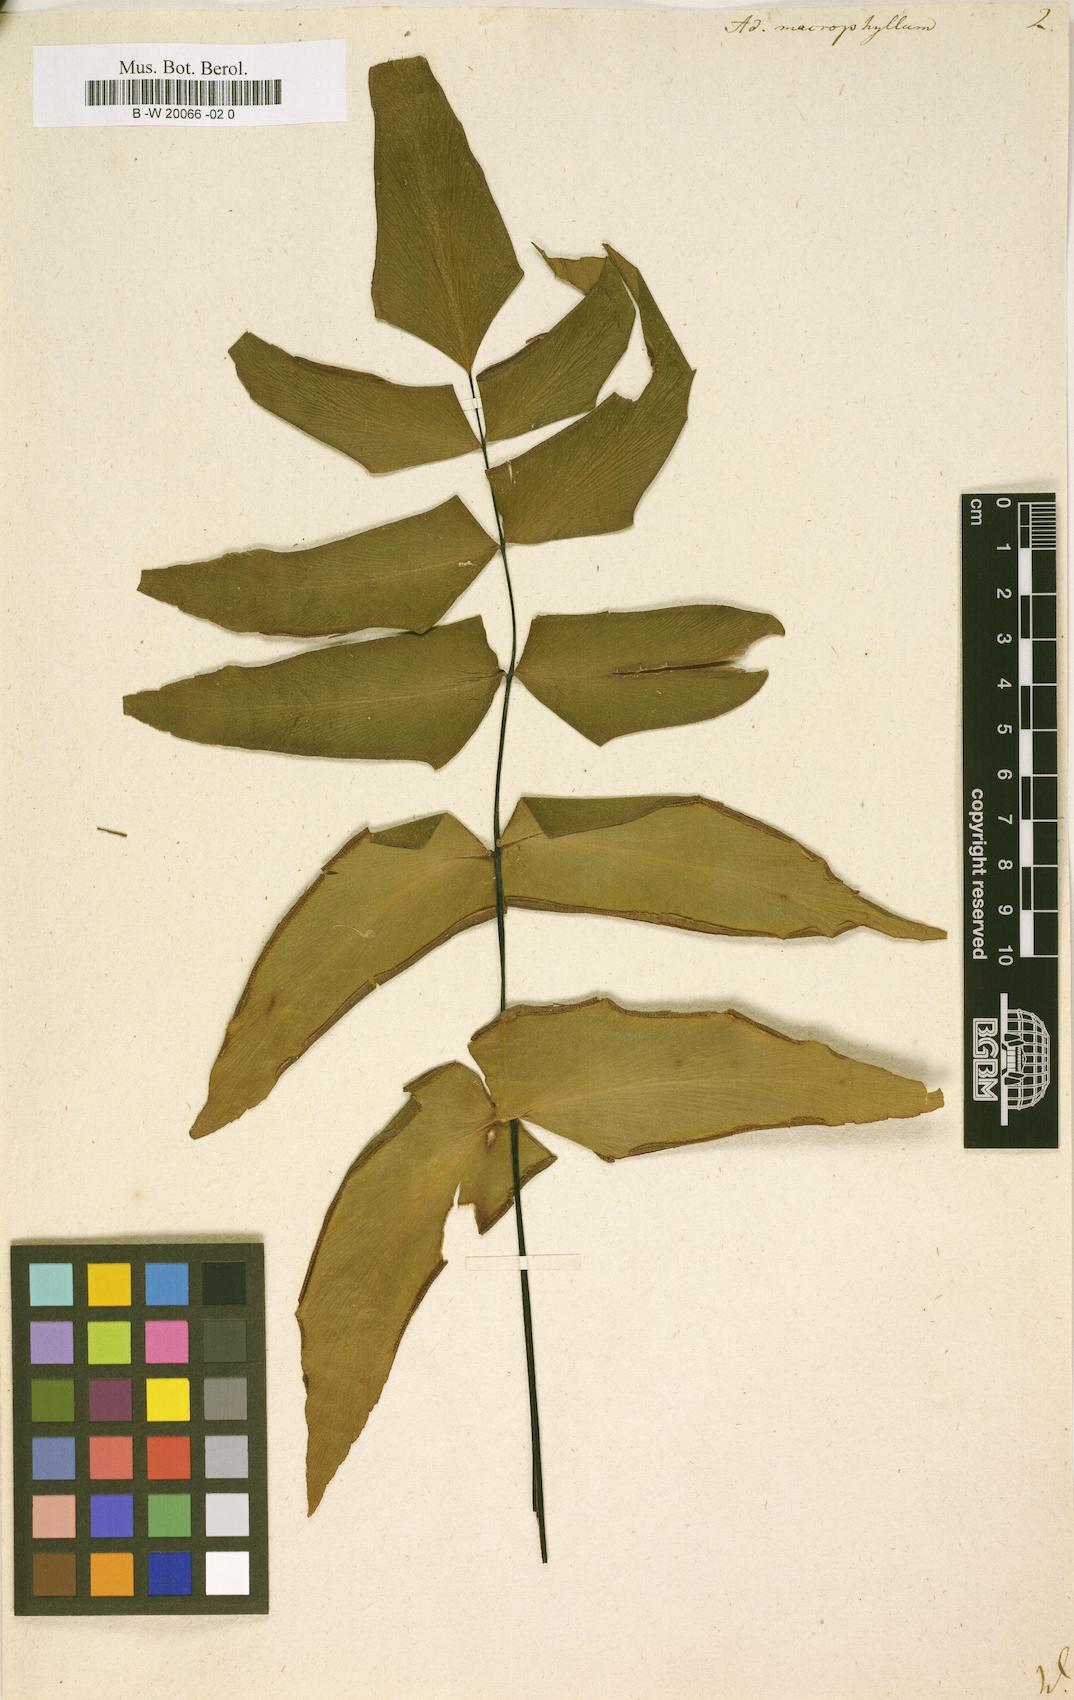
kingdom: Plantae
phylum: Tracheophyta
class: Polypodiopsida
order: Polypodiales
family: Pteridaceae
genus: Adiantum
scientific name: Adiantum macrophyllum
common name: Largeleaf maidenhair
